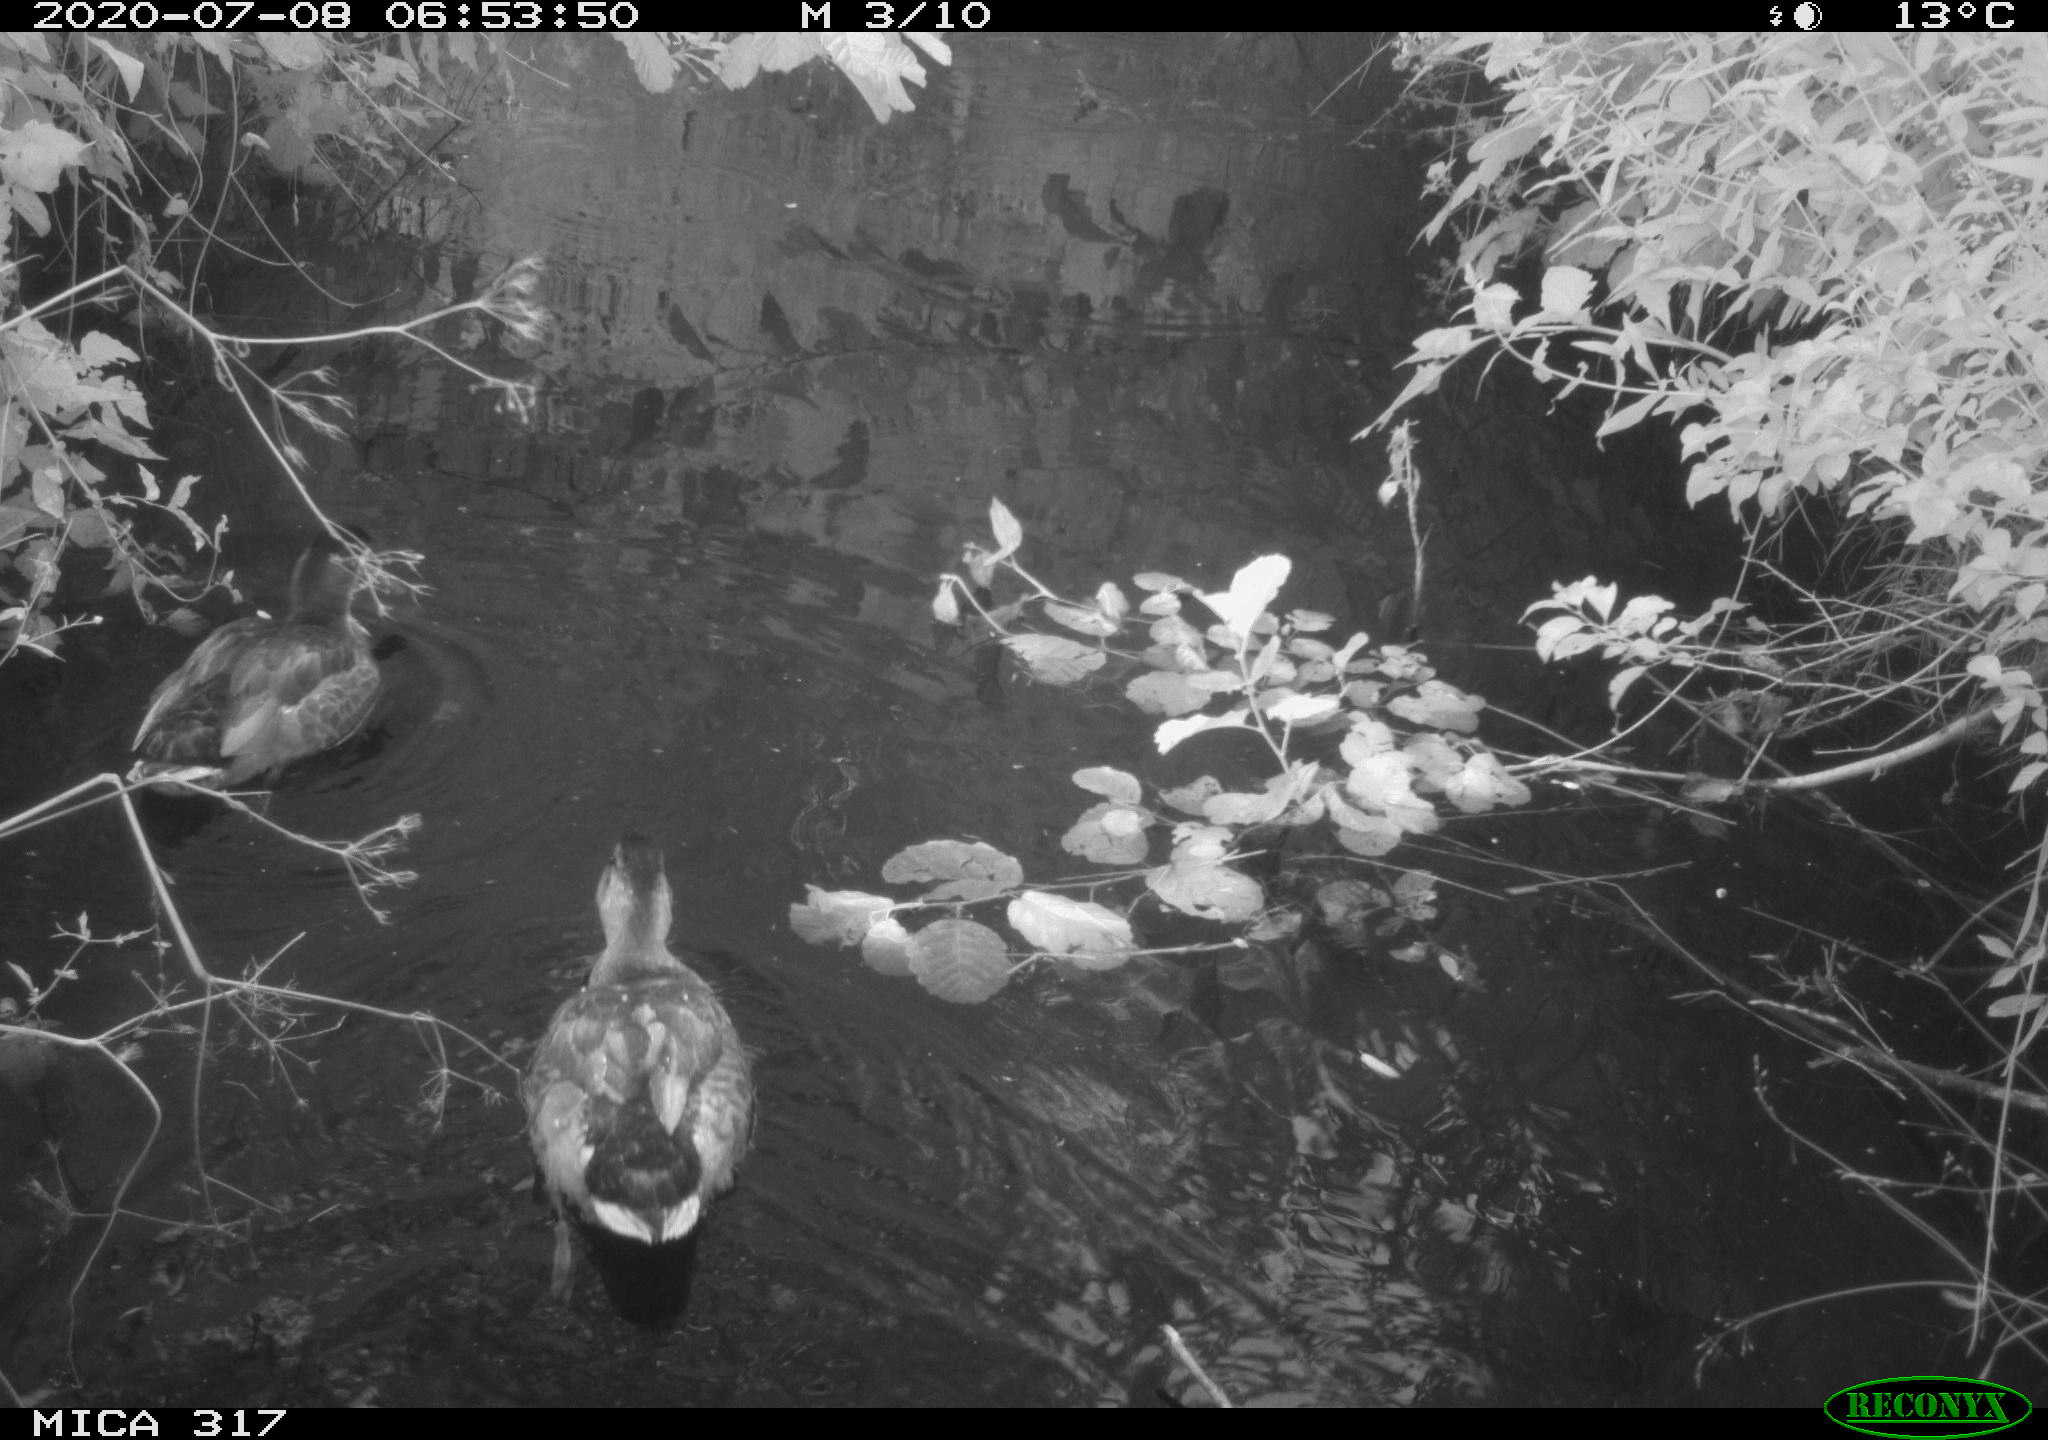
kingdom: Animalia
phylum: Chordata
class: Aves
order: Anseriformes
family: Anatidae
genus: Aix
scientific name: Aix galericulata
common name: Mandarin duck
